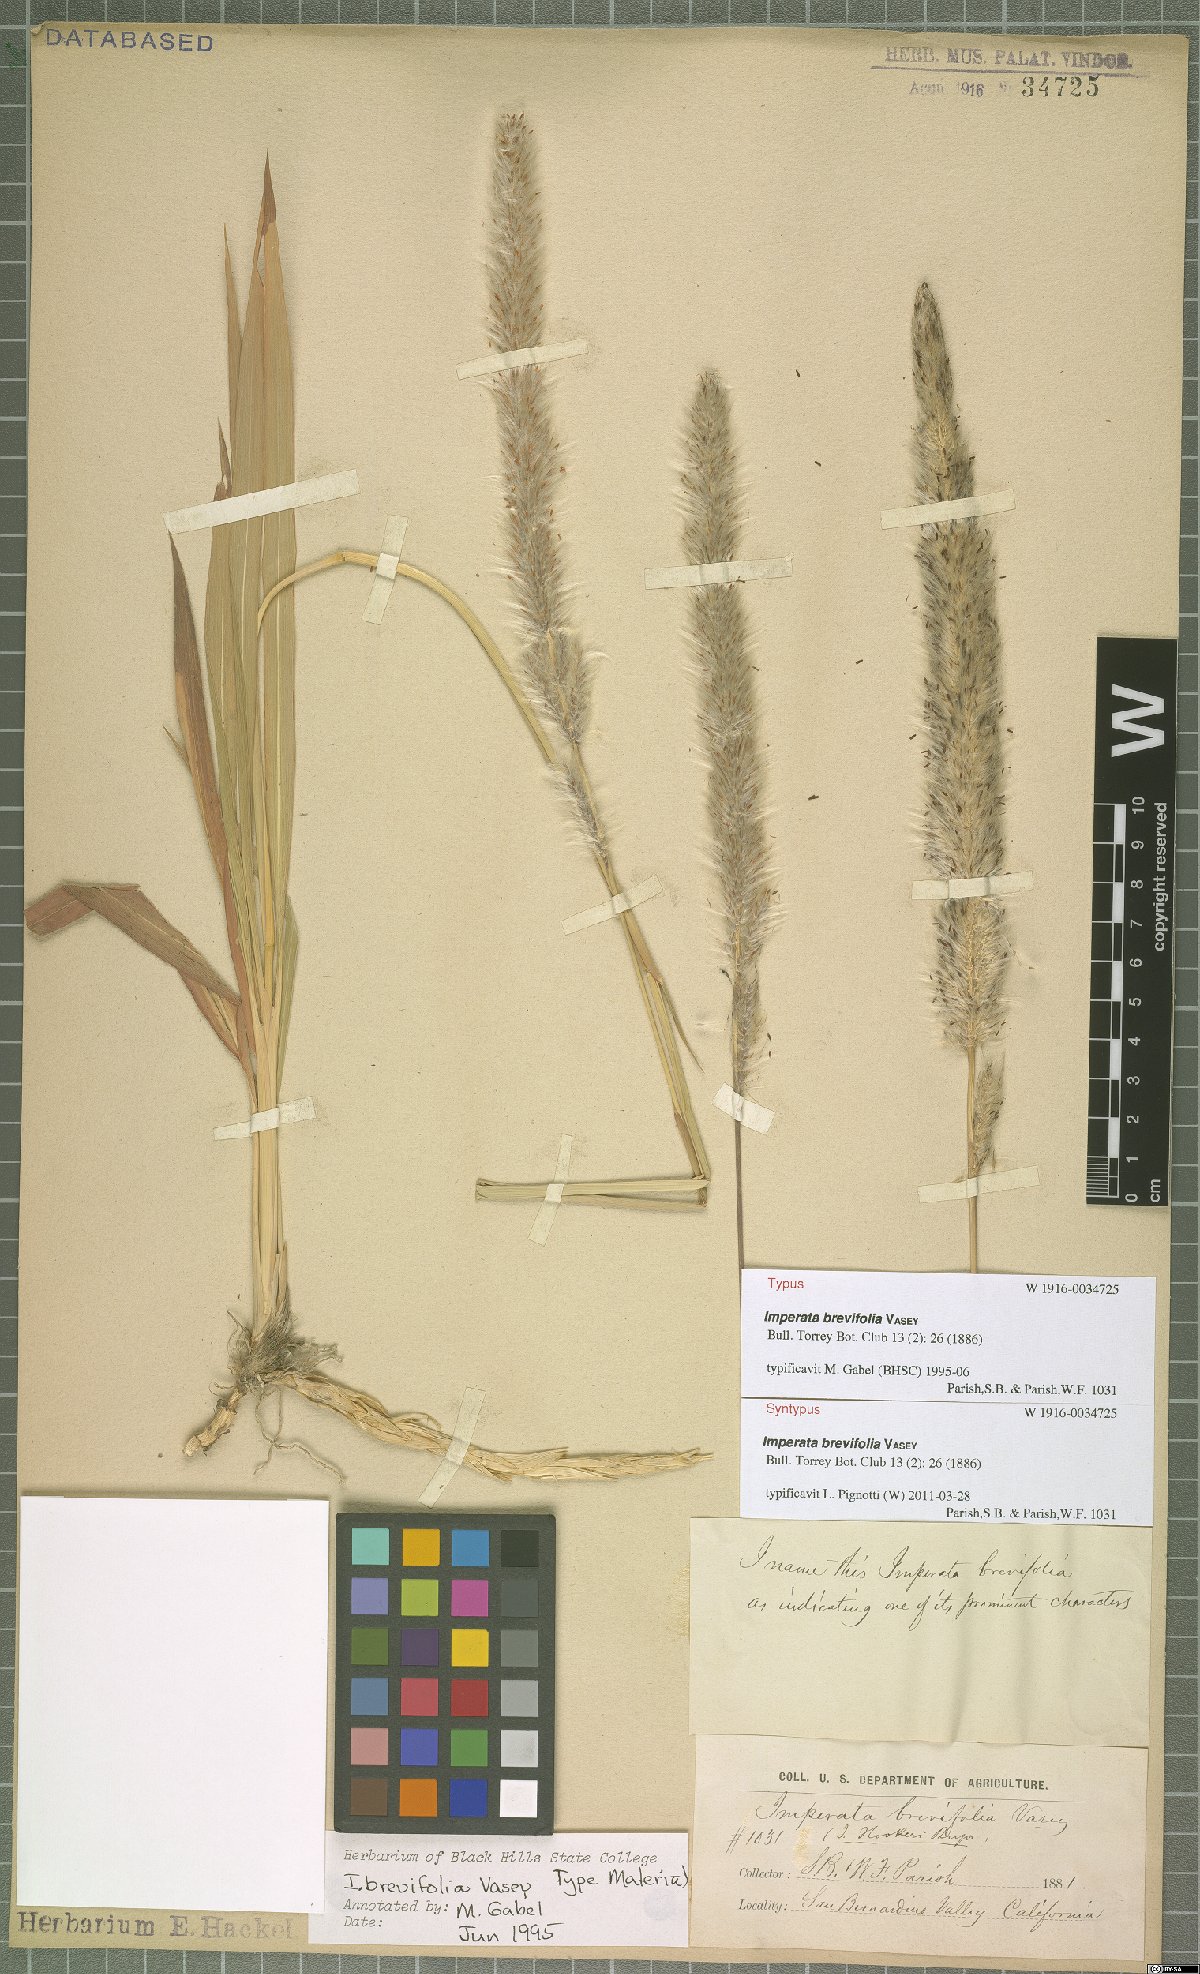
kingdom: Plantae
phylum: Tracheophyta
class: Liliopsida
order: Poales
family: Poaceae
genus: Imperata
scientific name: Imperata brevifolia
